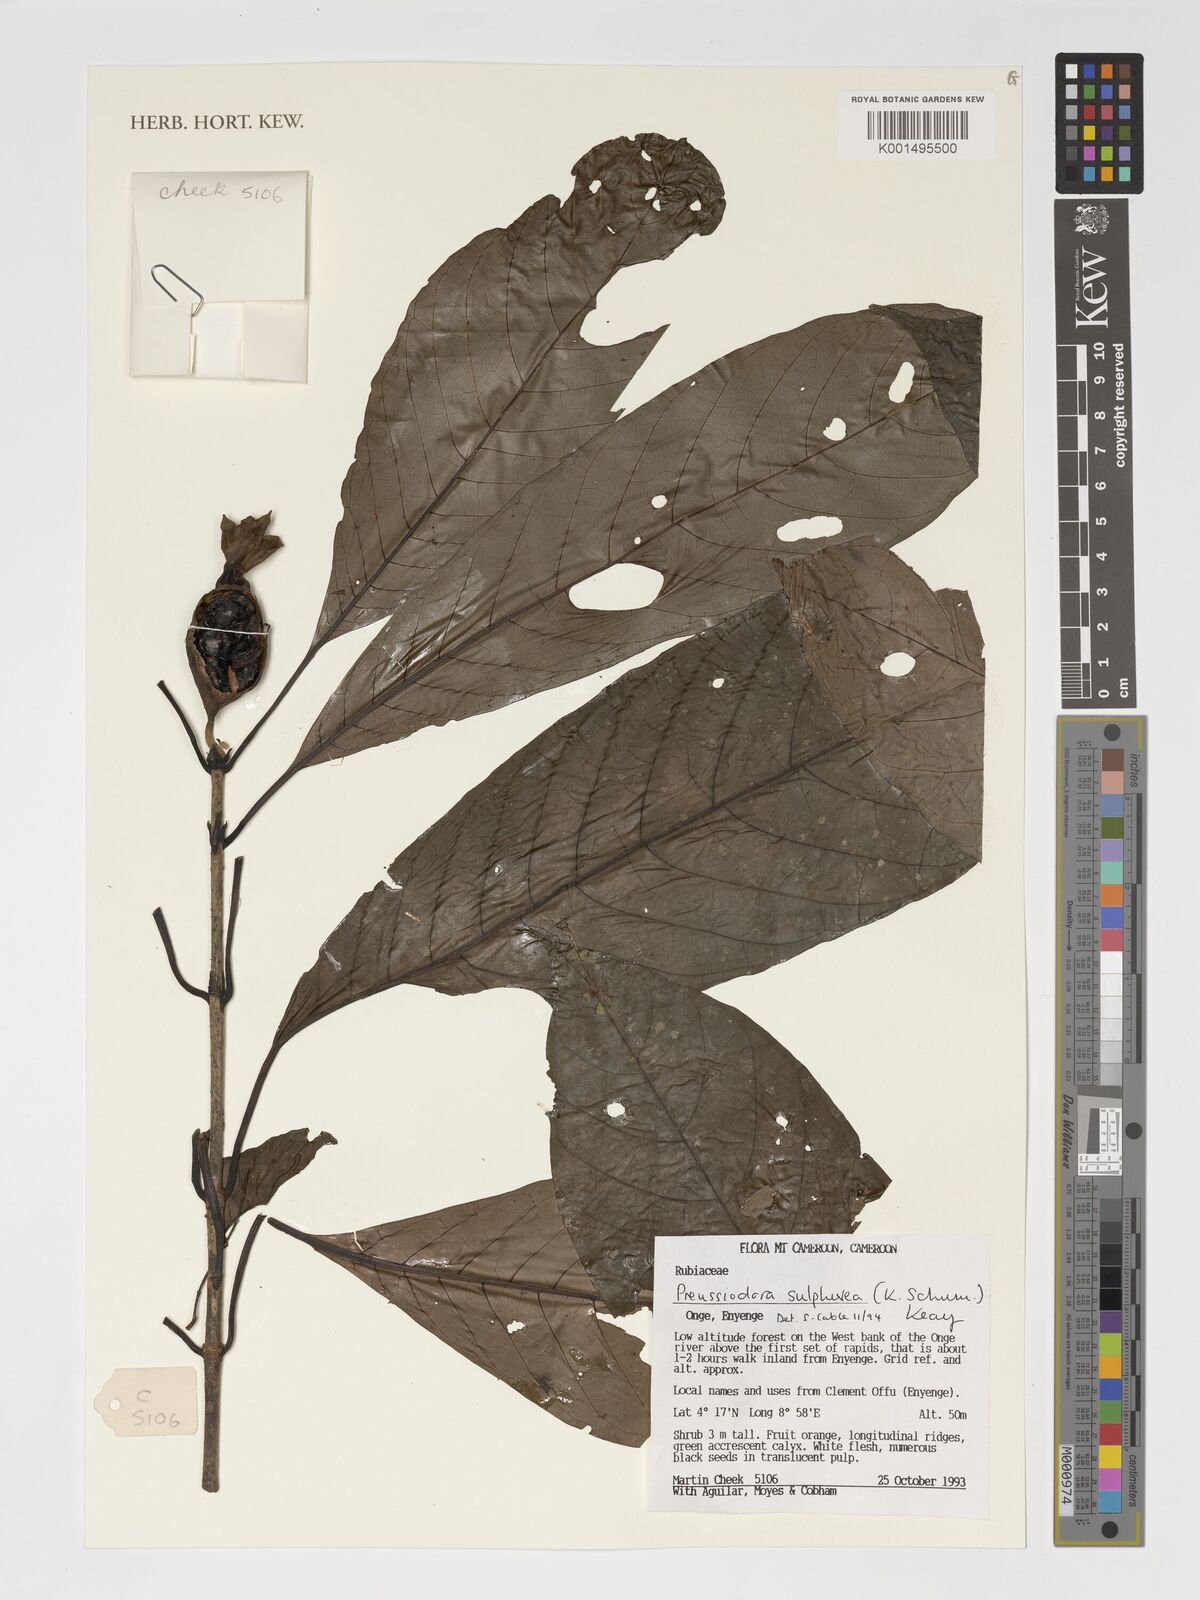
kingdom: Plantae
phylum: Tracheophyta
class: Magnoliopsida
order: Gentianales
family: Rubiaceae
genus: Preussiodora
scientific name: Preussiodora sulphurea
